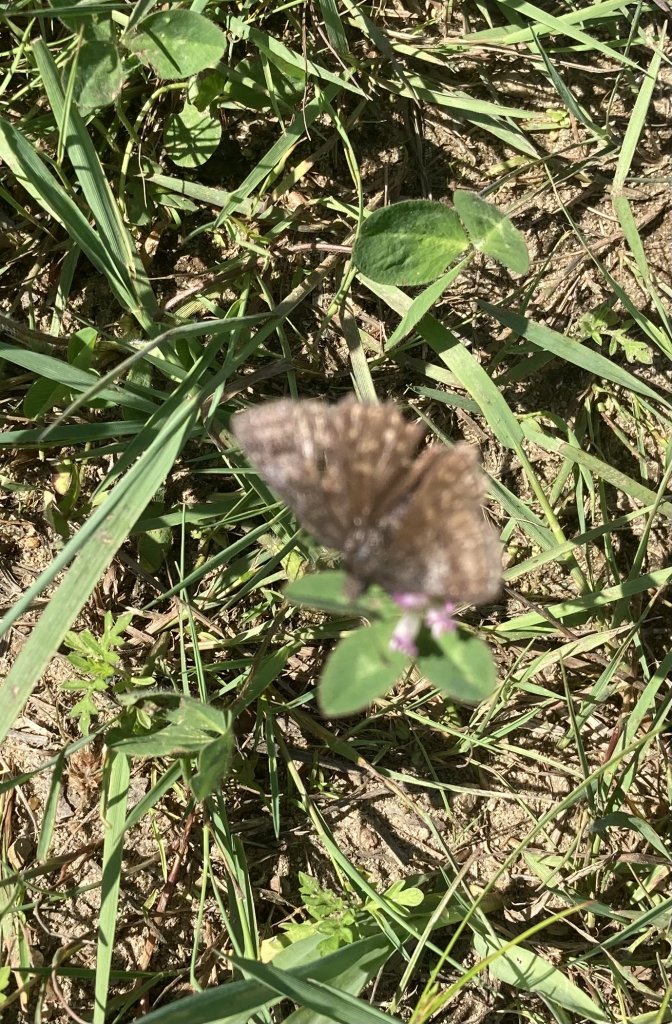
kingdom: Animalia
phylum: Arthropoda
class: Insecta
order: Lepidoptera
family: Hesperiidae
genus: Erynnis
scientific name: Erynnis icelus
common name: Dreamy Duskywing
